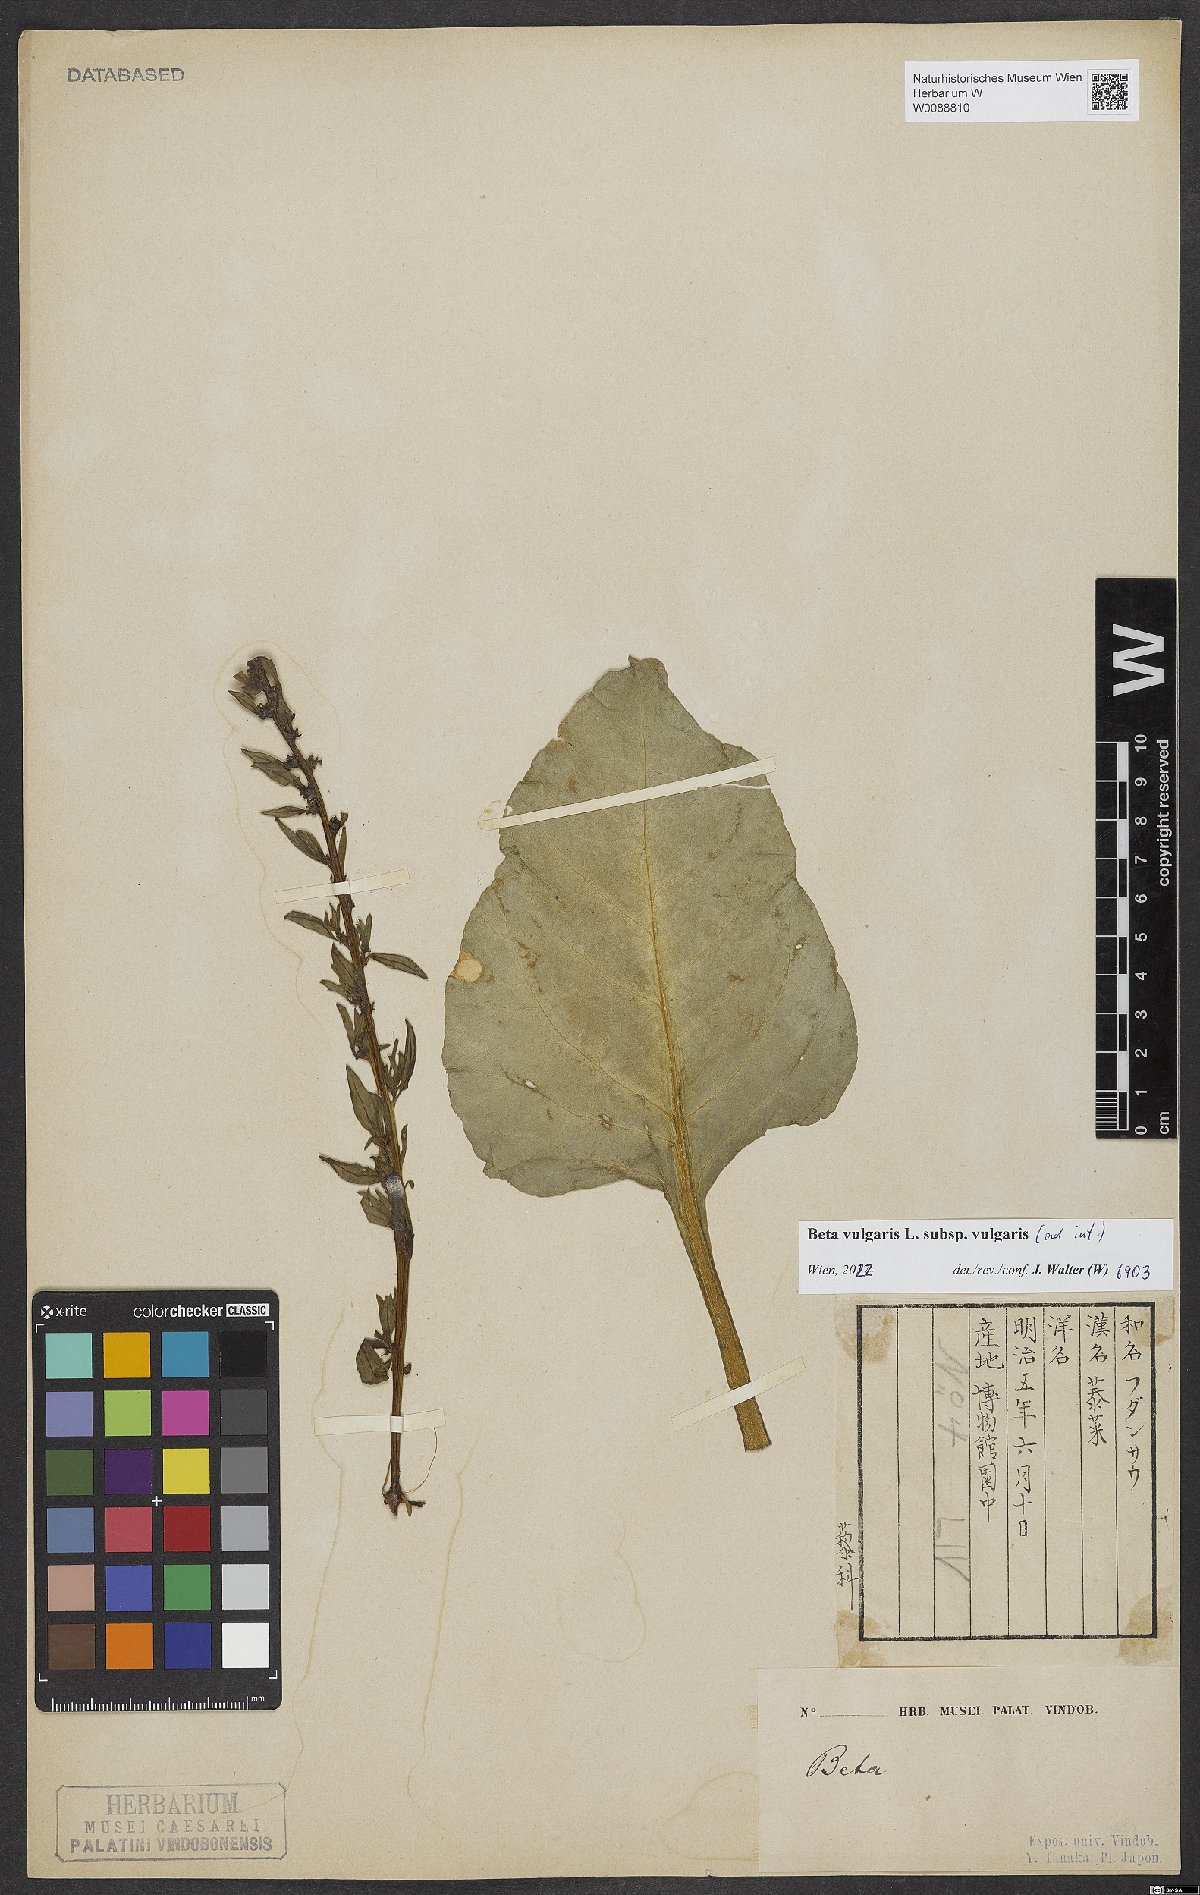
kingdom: Plantae
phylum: Tracheophyta
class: Magnoliopsida
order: Caryophyllales
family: Amaranthaceae
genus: Beta
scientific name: Beta vulgaris
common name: Beet
